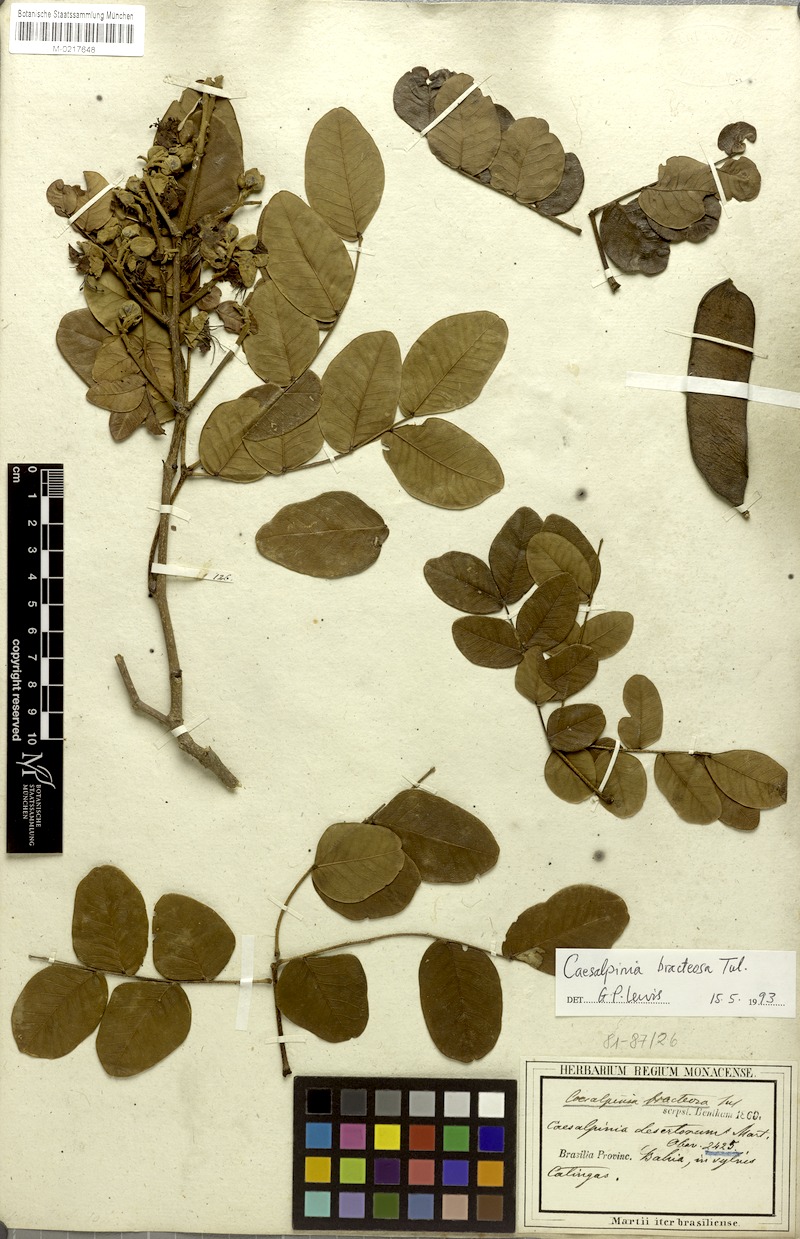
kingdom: Plantae
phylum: Tracheophyta
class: Magnoliopsida
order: Fabales
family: Fabaceae
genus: Cenostigma
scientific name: Cenostigma bracteosum
